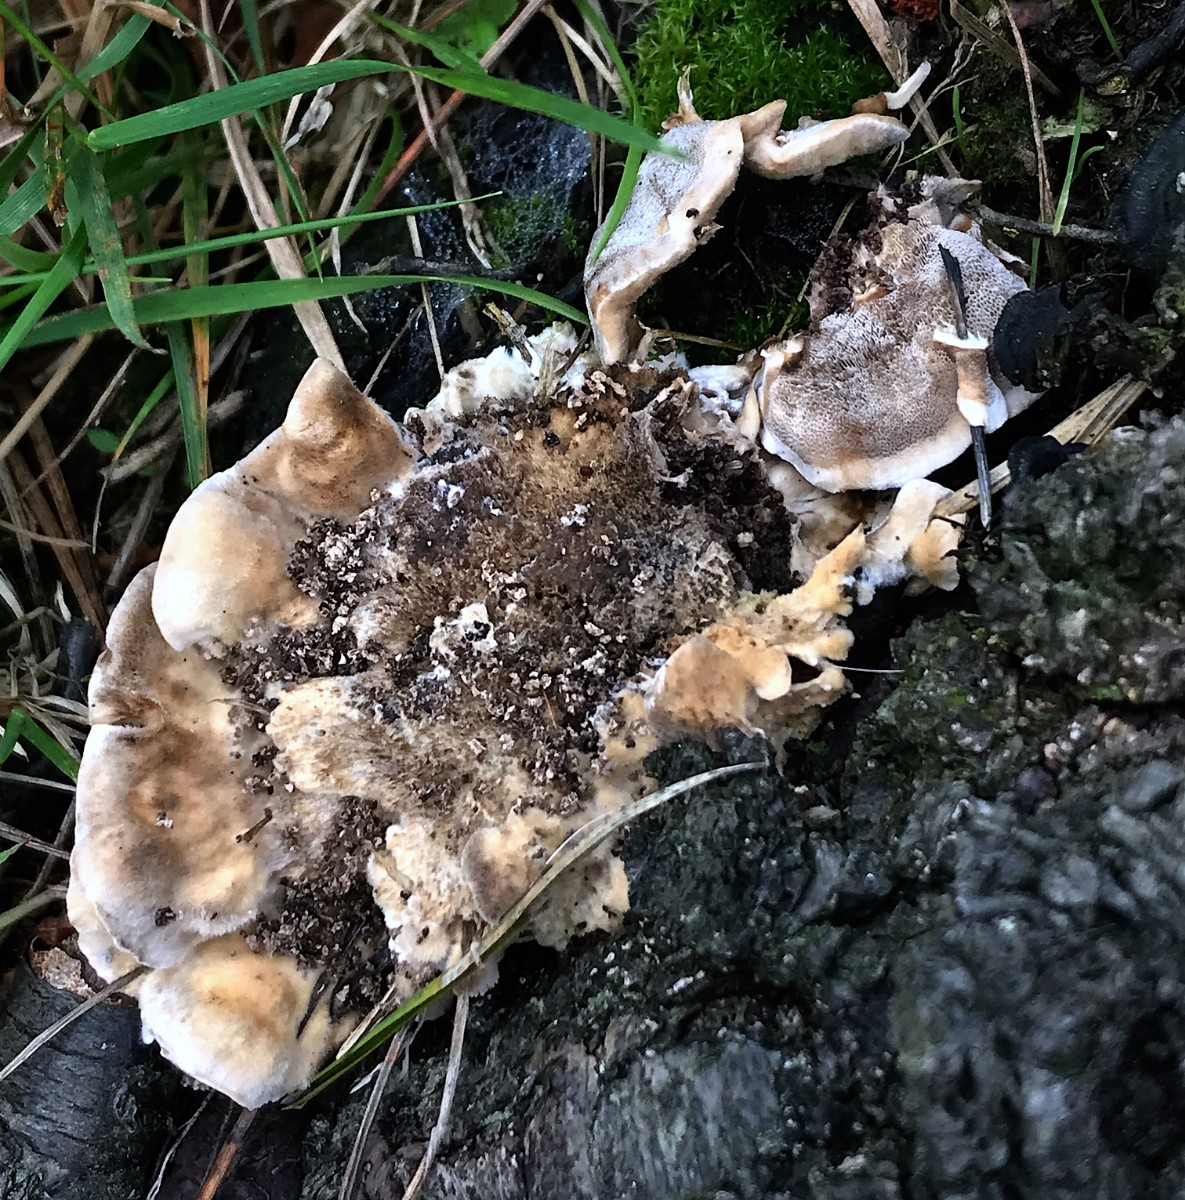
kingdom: Fungi
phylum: Basidiomycota
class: Agaricomycetes
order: Polyporales
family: Phanerochaetaceae
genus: Bjerkandera
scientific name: Bjerkandera adusta
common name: sveden sodporesvamp
